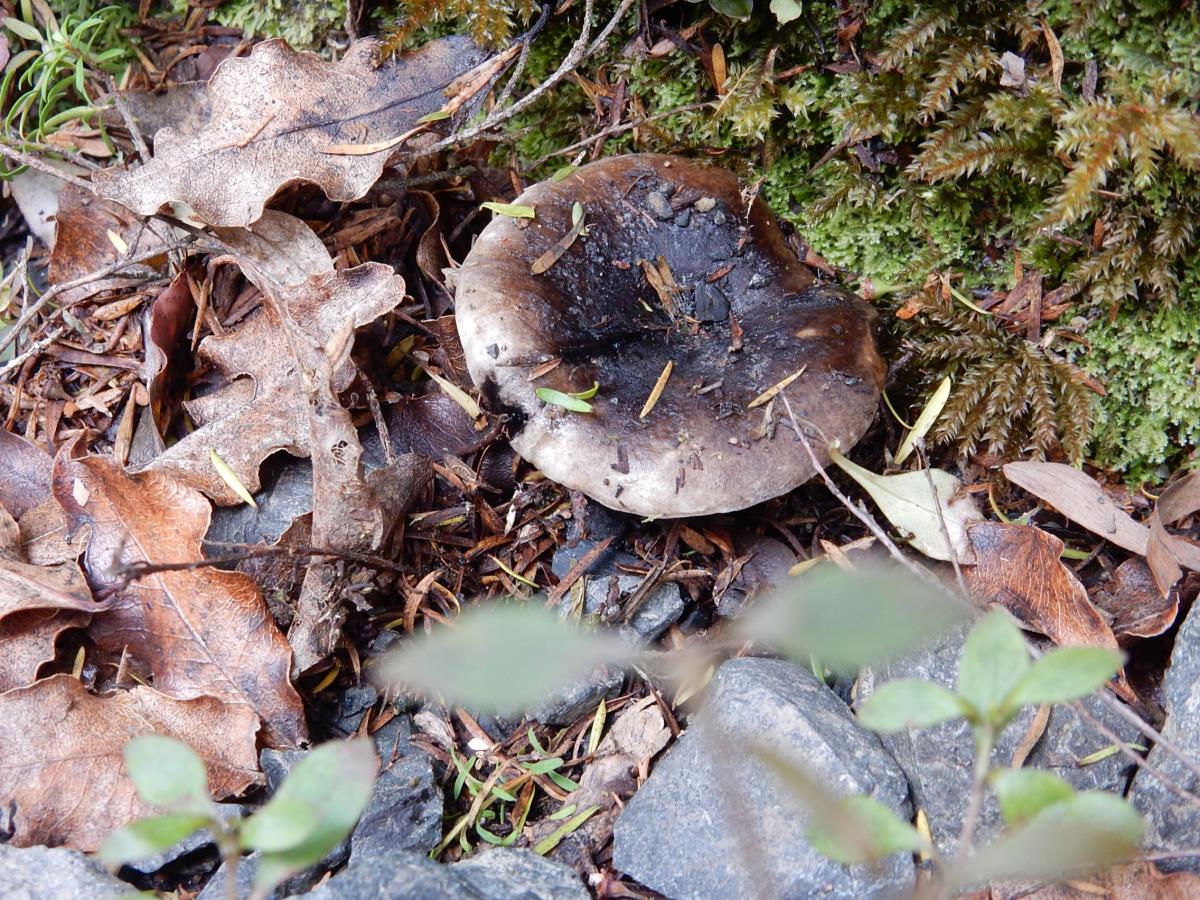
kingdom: Fungi
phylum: Basidiomycota
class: Agaricomycetes
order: Russulales
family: Russulaceae
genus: Russula
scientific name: Russula inquinata
